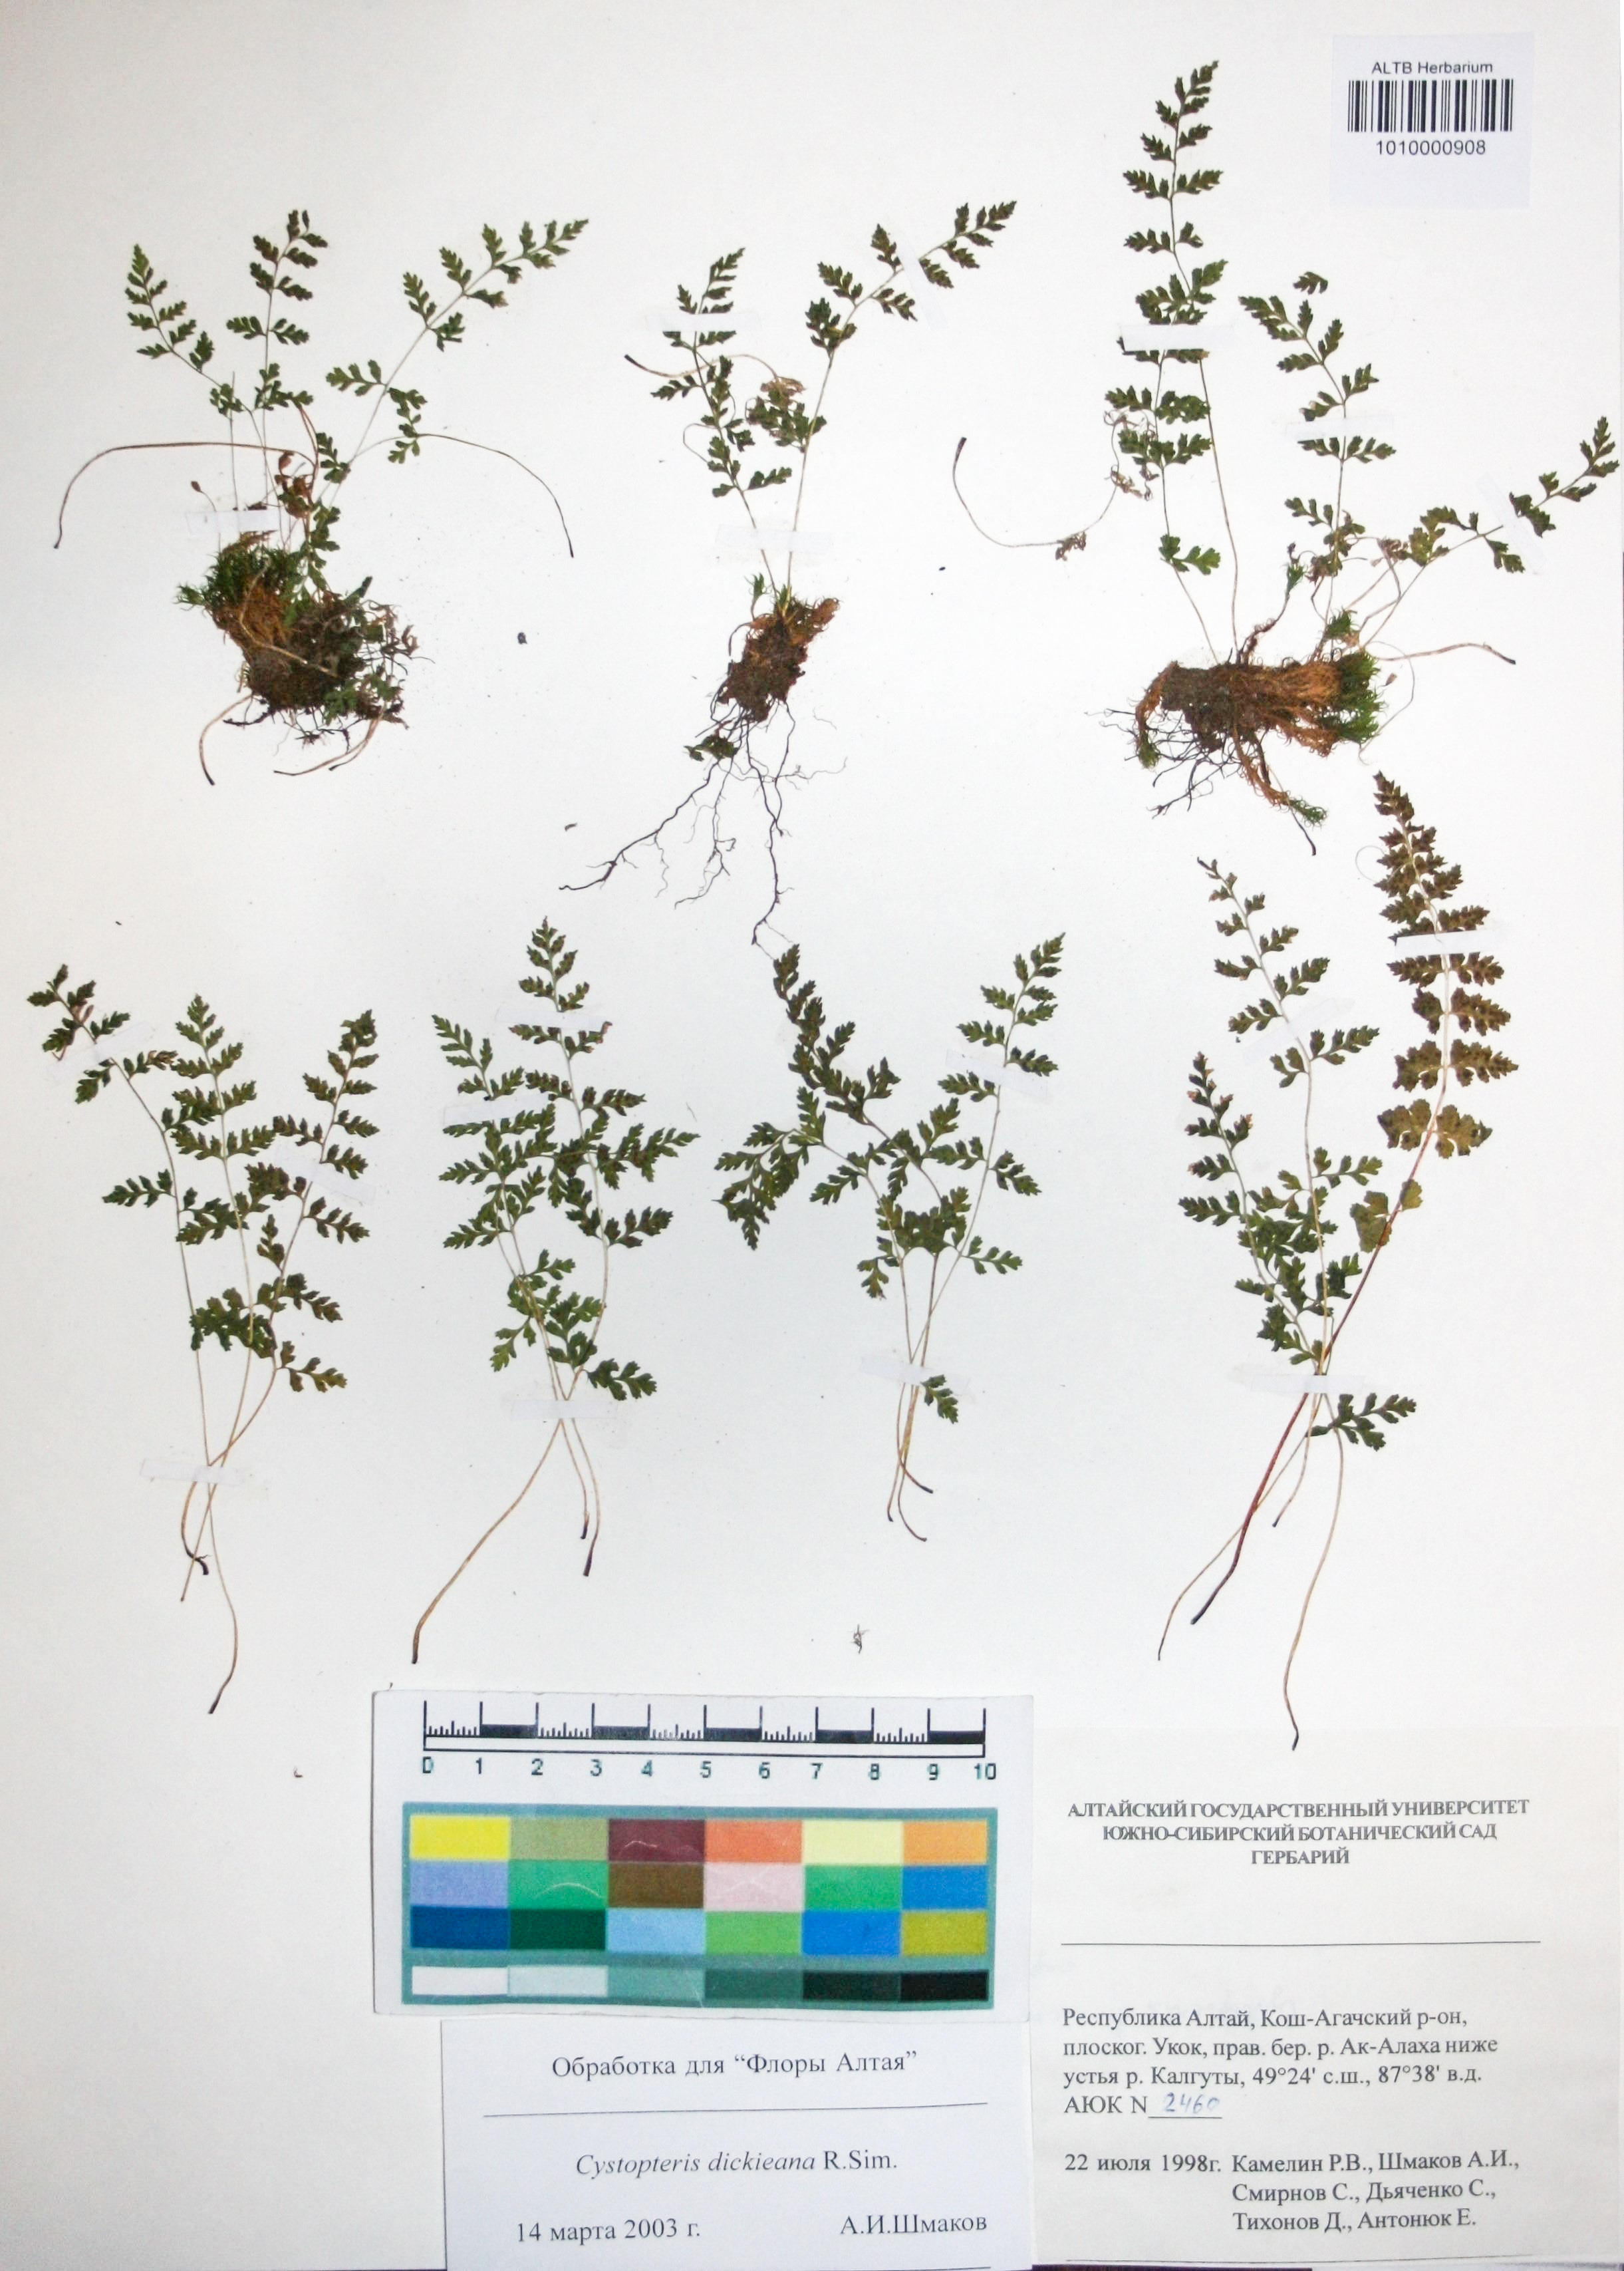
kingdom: Plantae
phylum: Tracheophyta
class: Polypodiopsida
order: Polypodiales
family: Cystopteridaceae
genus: Cystopteris
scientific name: Cystopteris dickieana
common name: Dickie's bladder-fern
